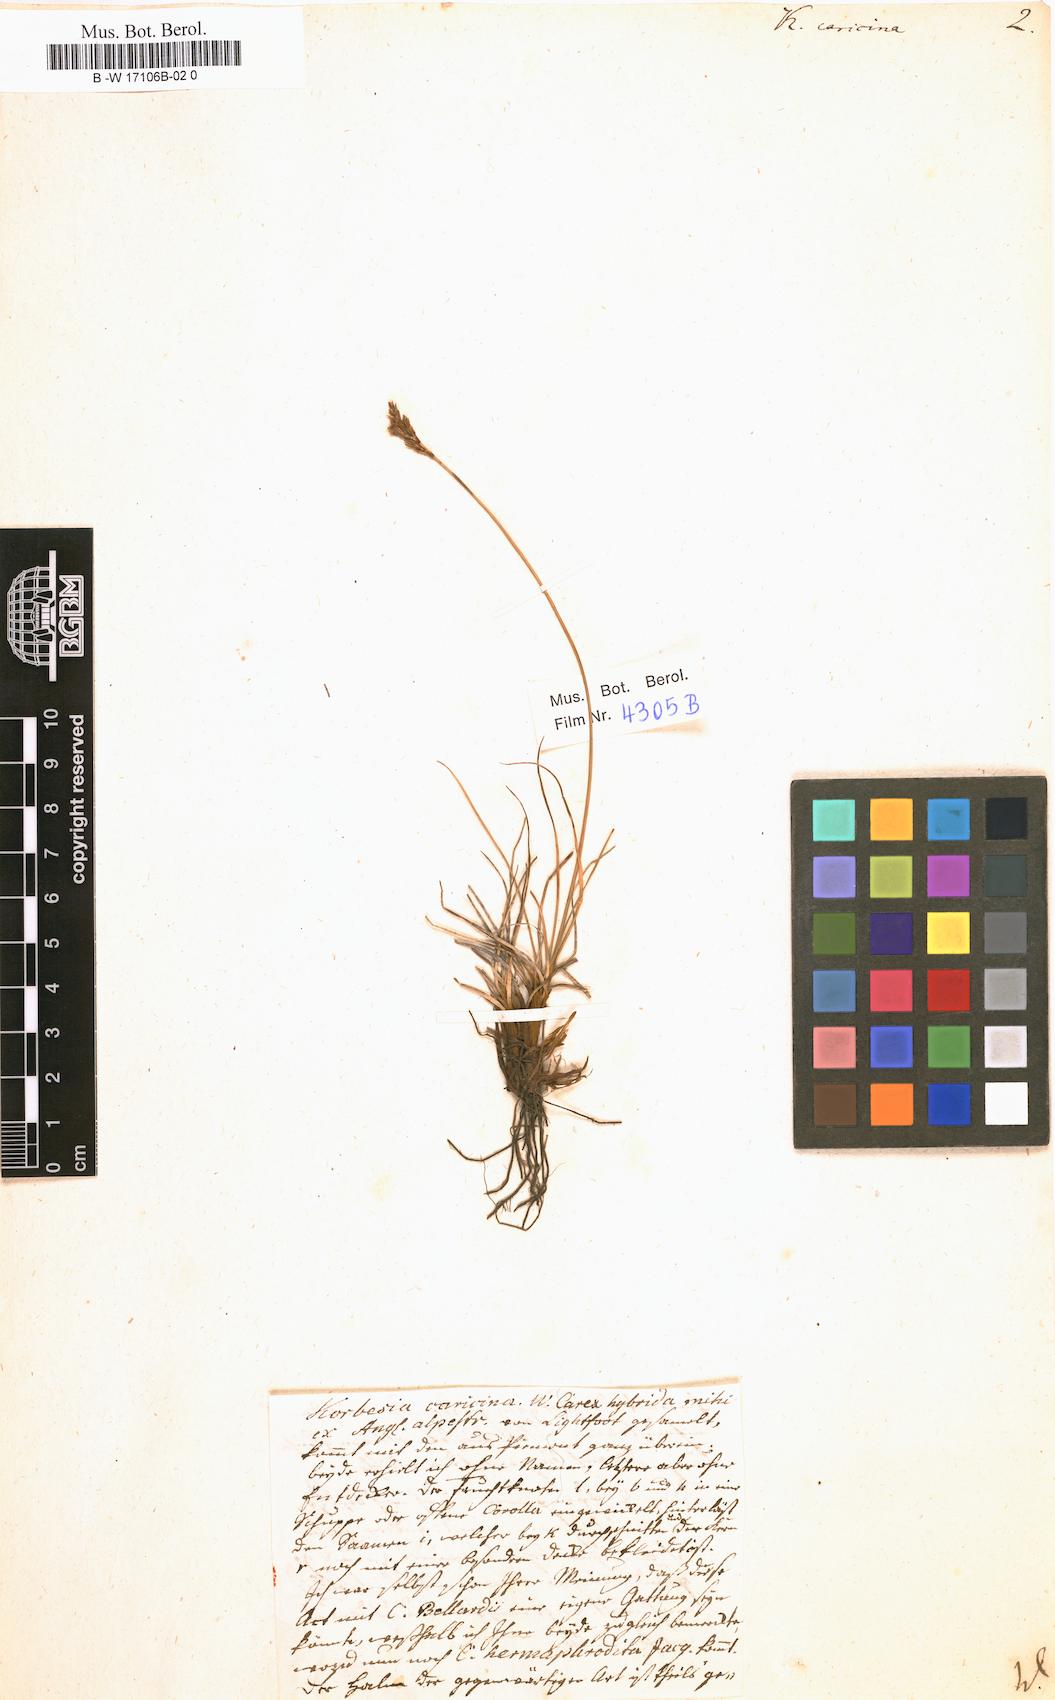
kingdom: Plantae
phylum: Tracheophyta
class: Liliopsida
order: Poales
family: Cyperaceae
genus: Carex
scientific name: Carex simpliciuscula
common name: Simple bog sedge
